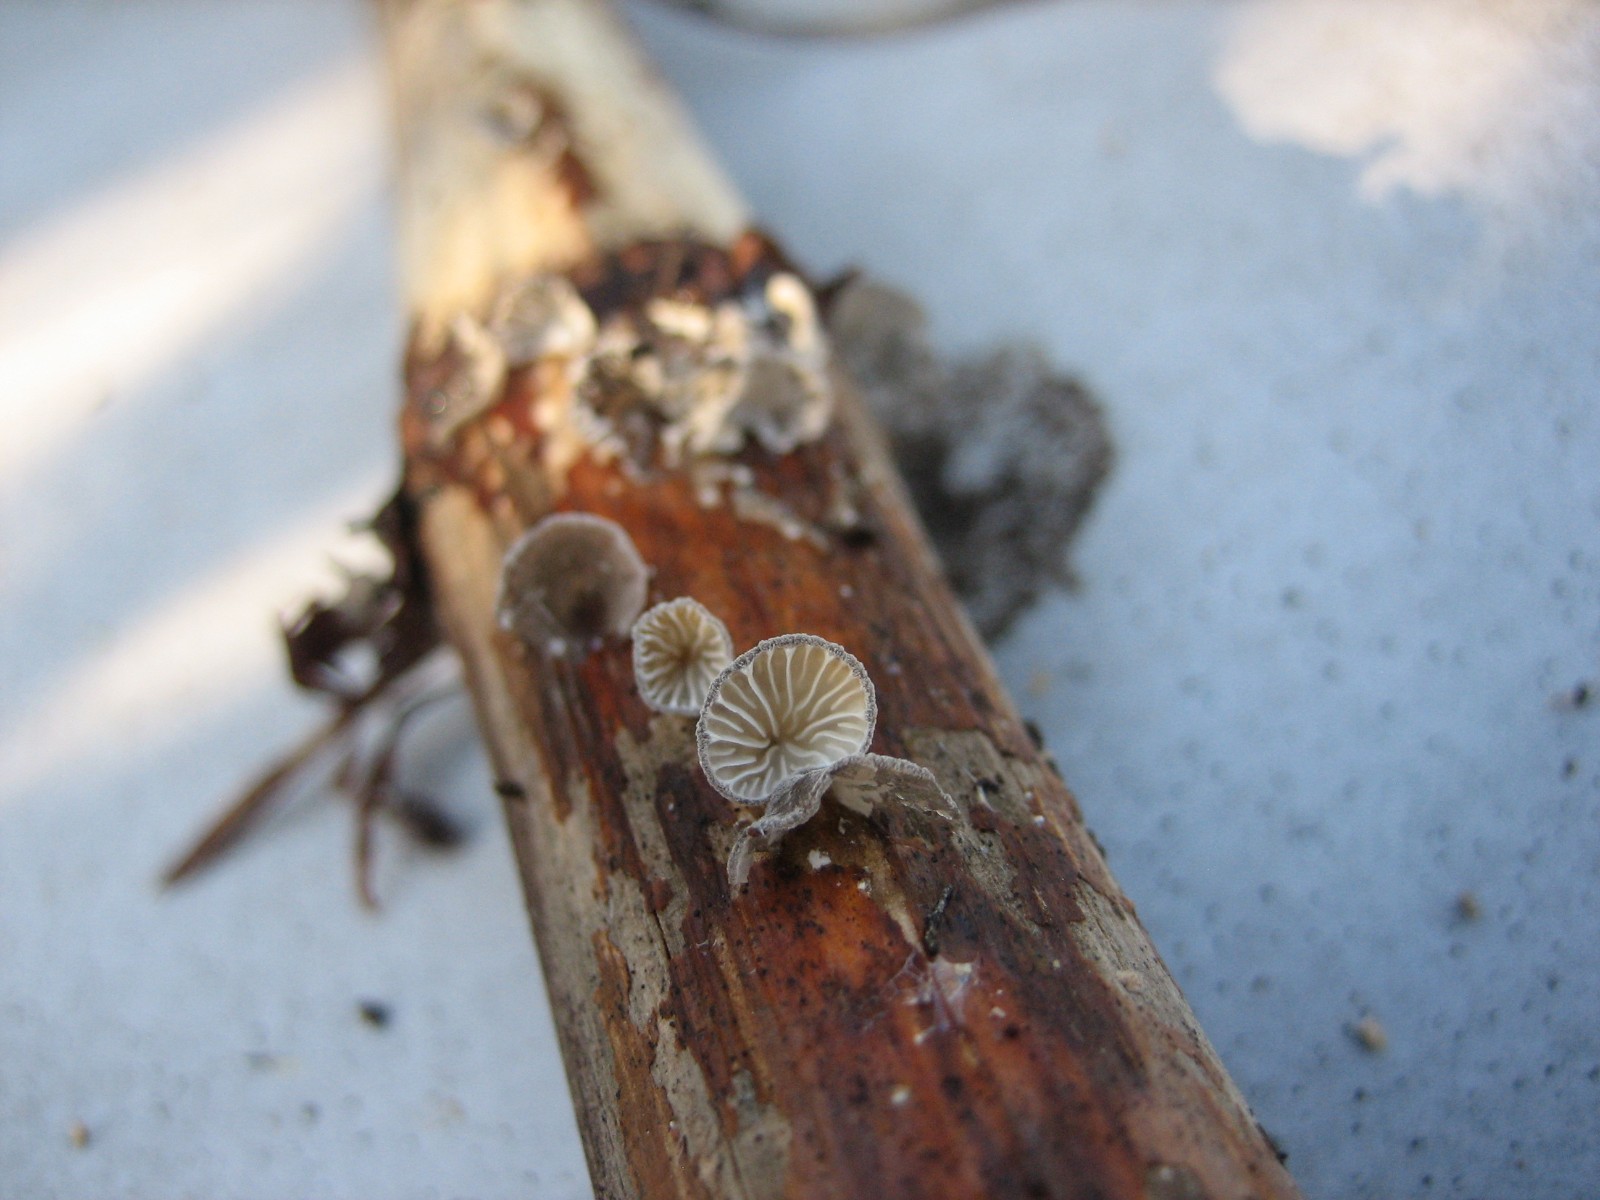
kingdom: Fungi
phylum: Basidiomycota
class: Agaricomycetes
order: Agaricales
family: Pleurotaceae
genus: Hohenbuehelia
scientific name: Hohenbuehelia cyphelliformis
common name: urte-filthat
